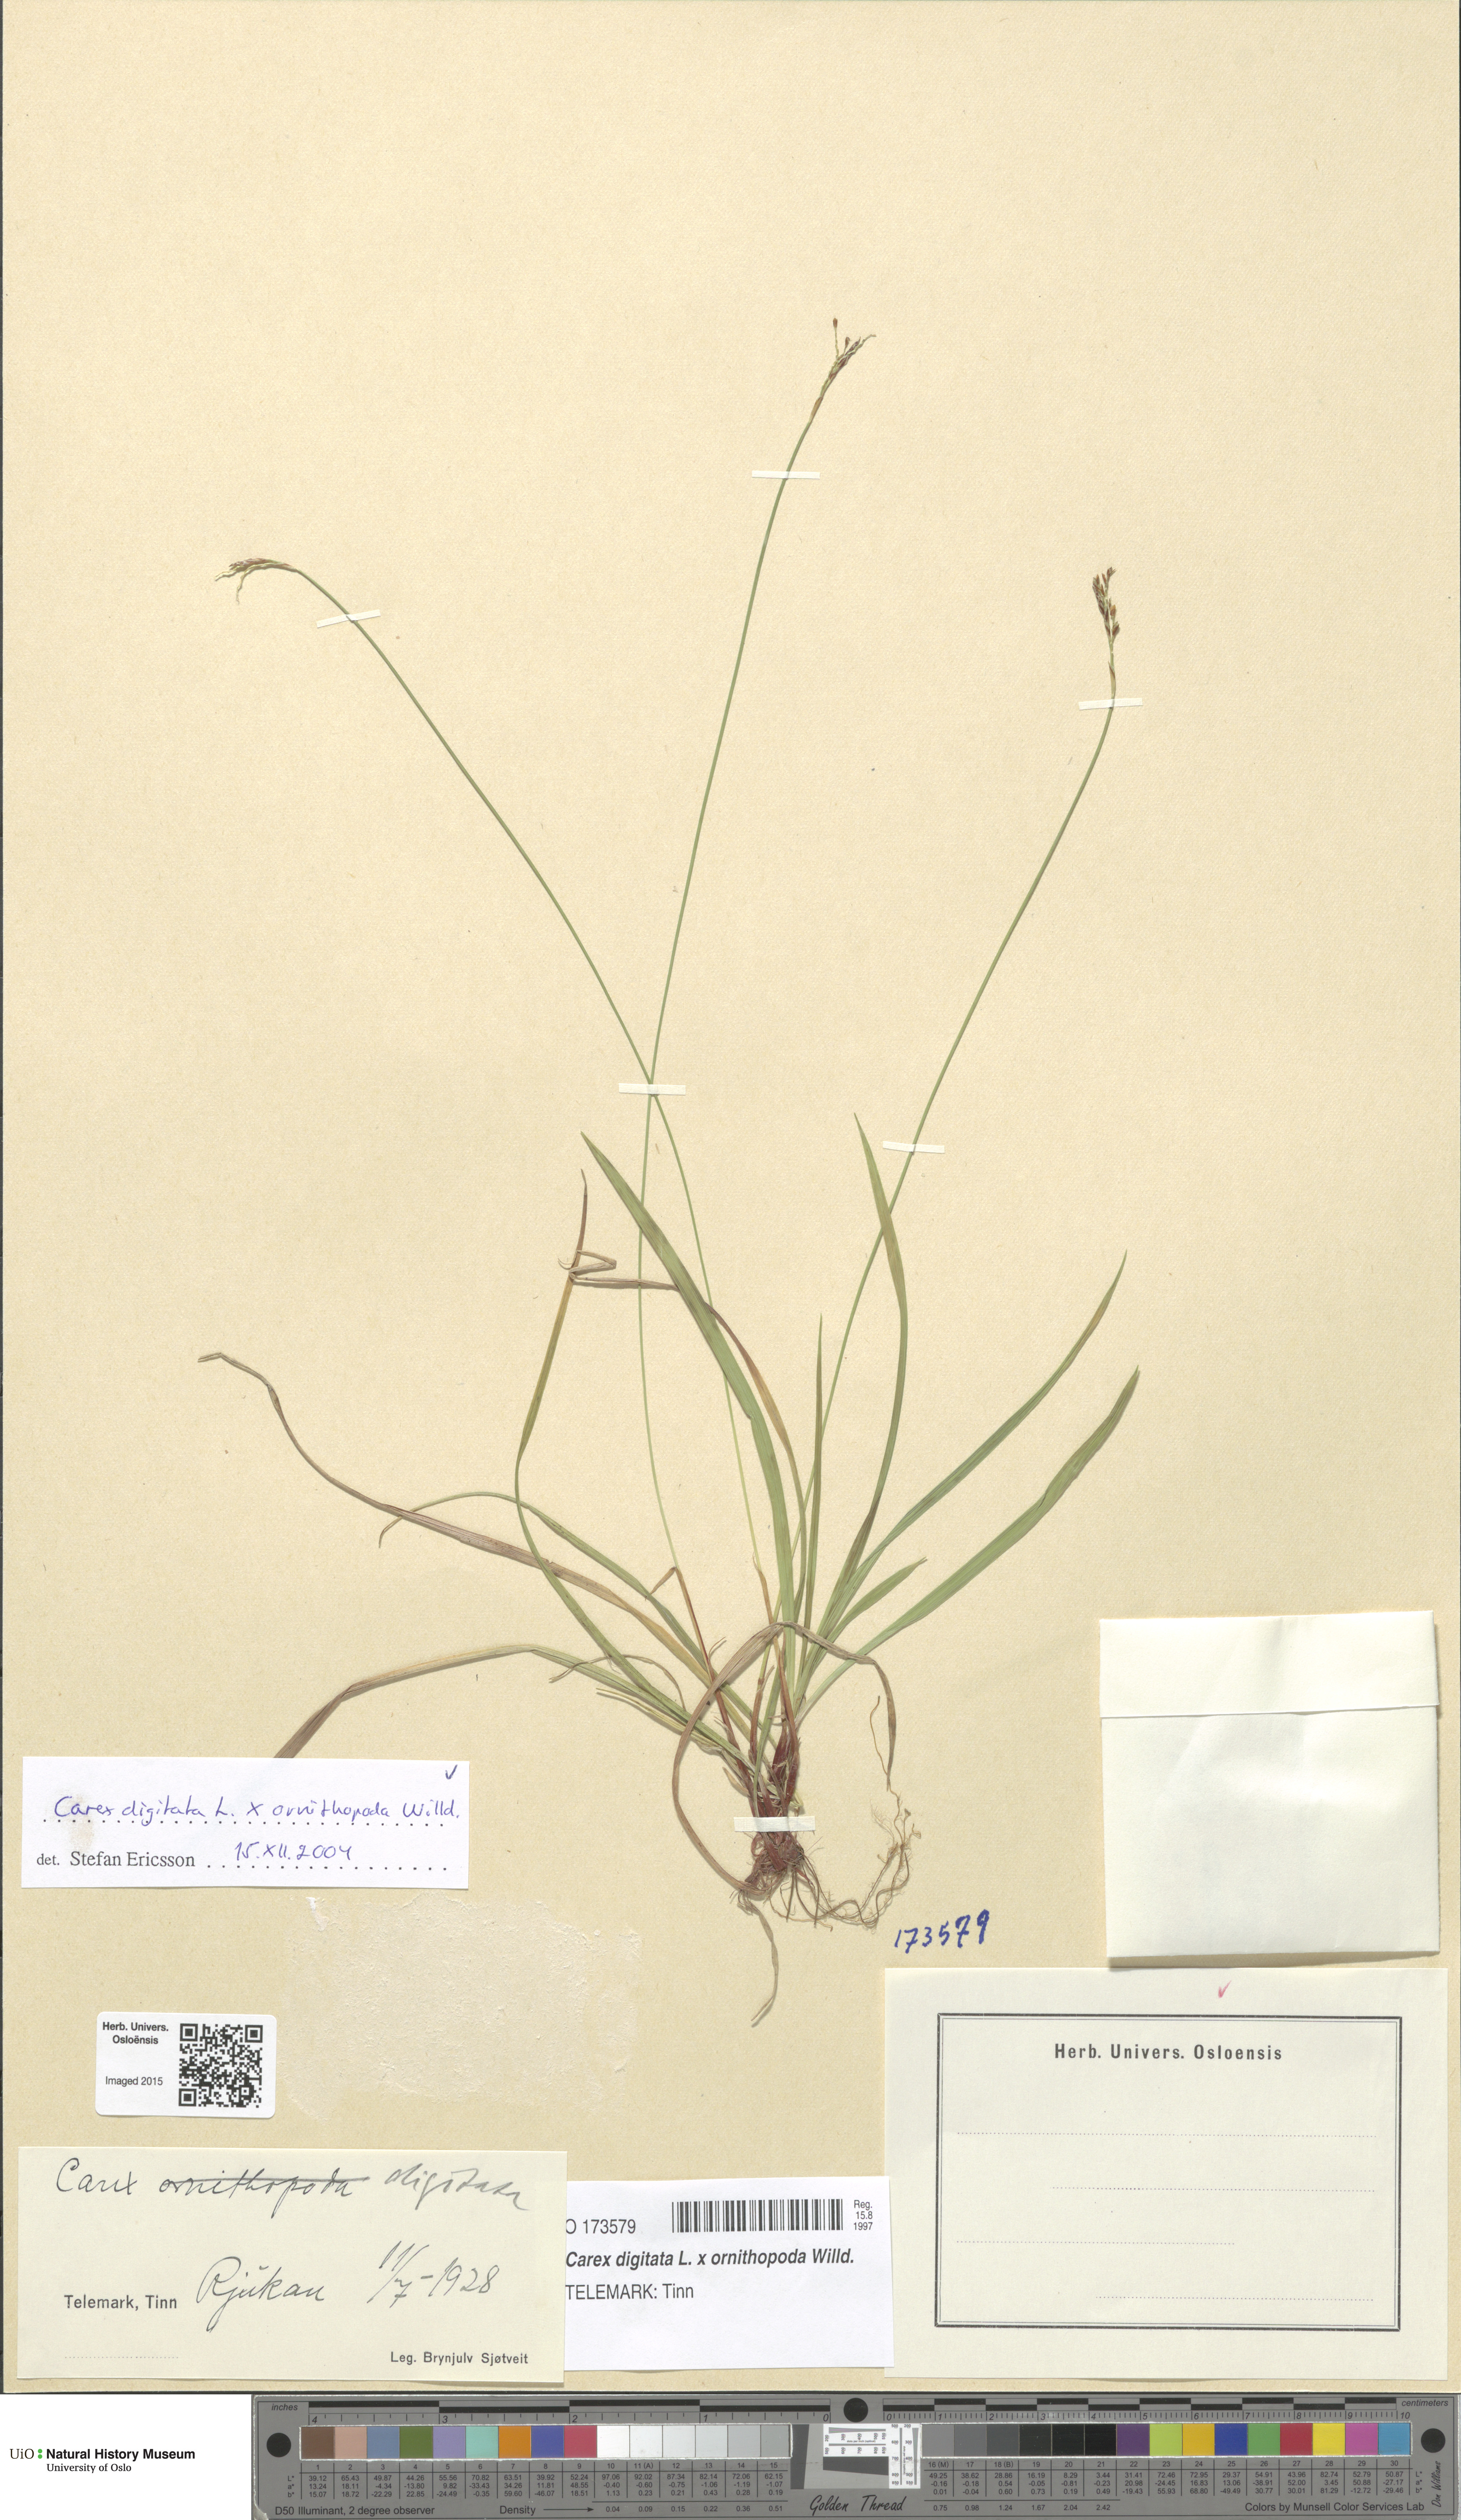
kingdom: Plantae
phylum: Tracheophyta
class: Liliopsida
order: Poales
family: Cyperaceae
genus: Carex
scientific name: Carex
